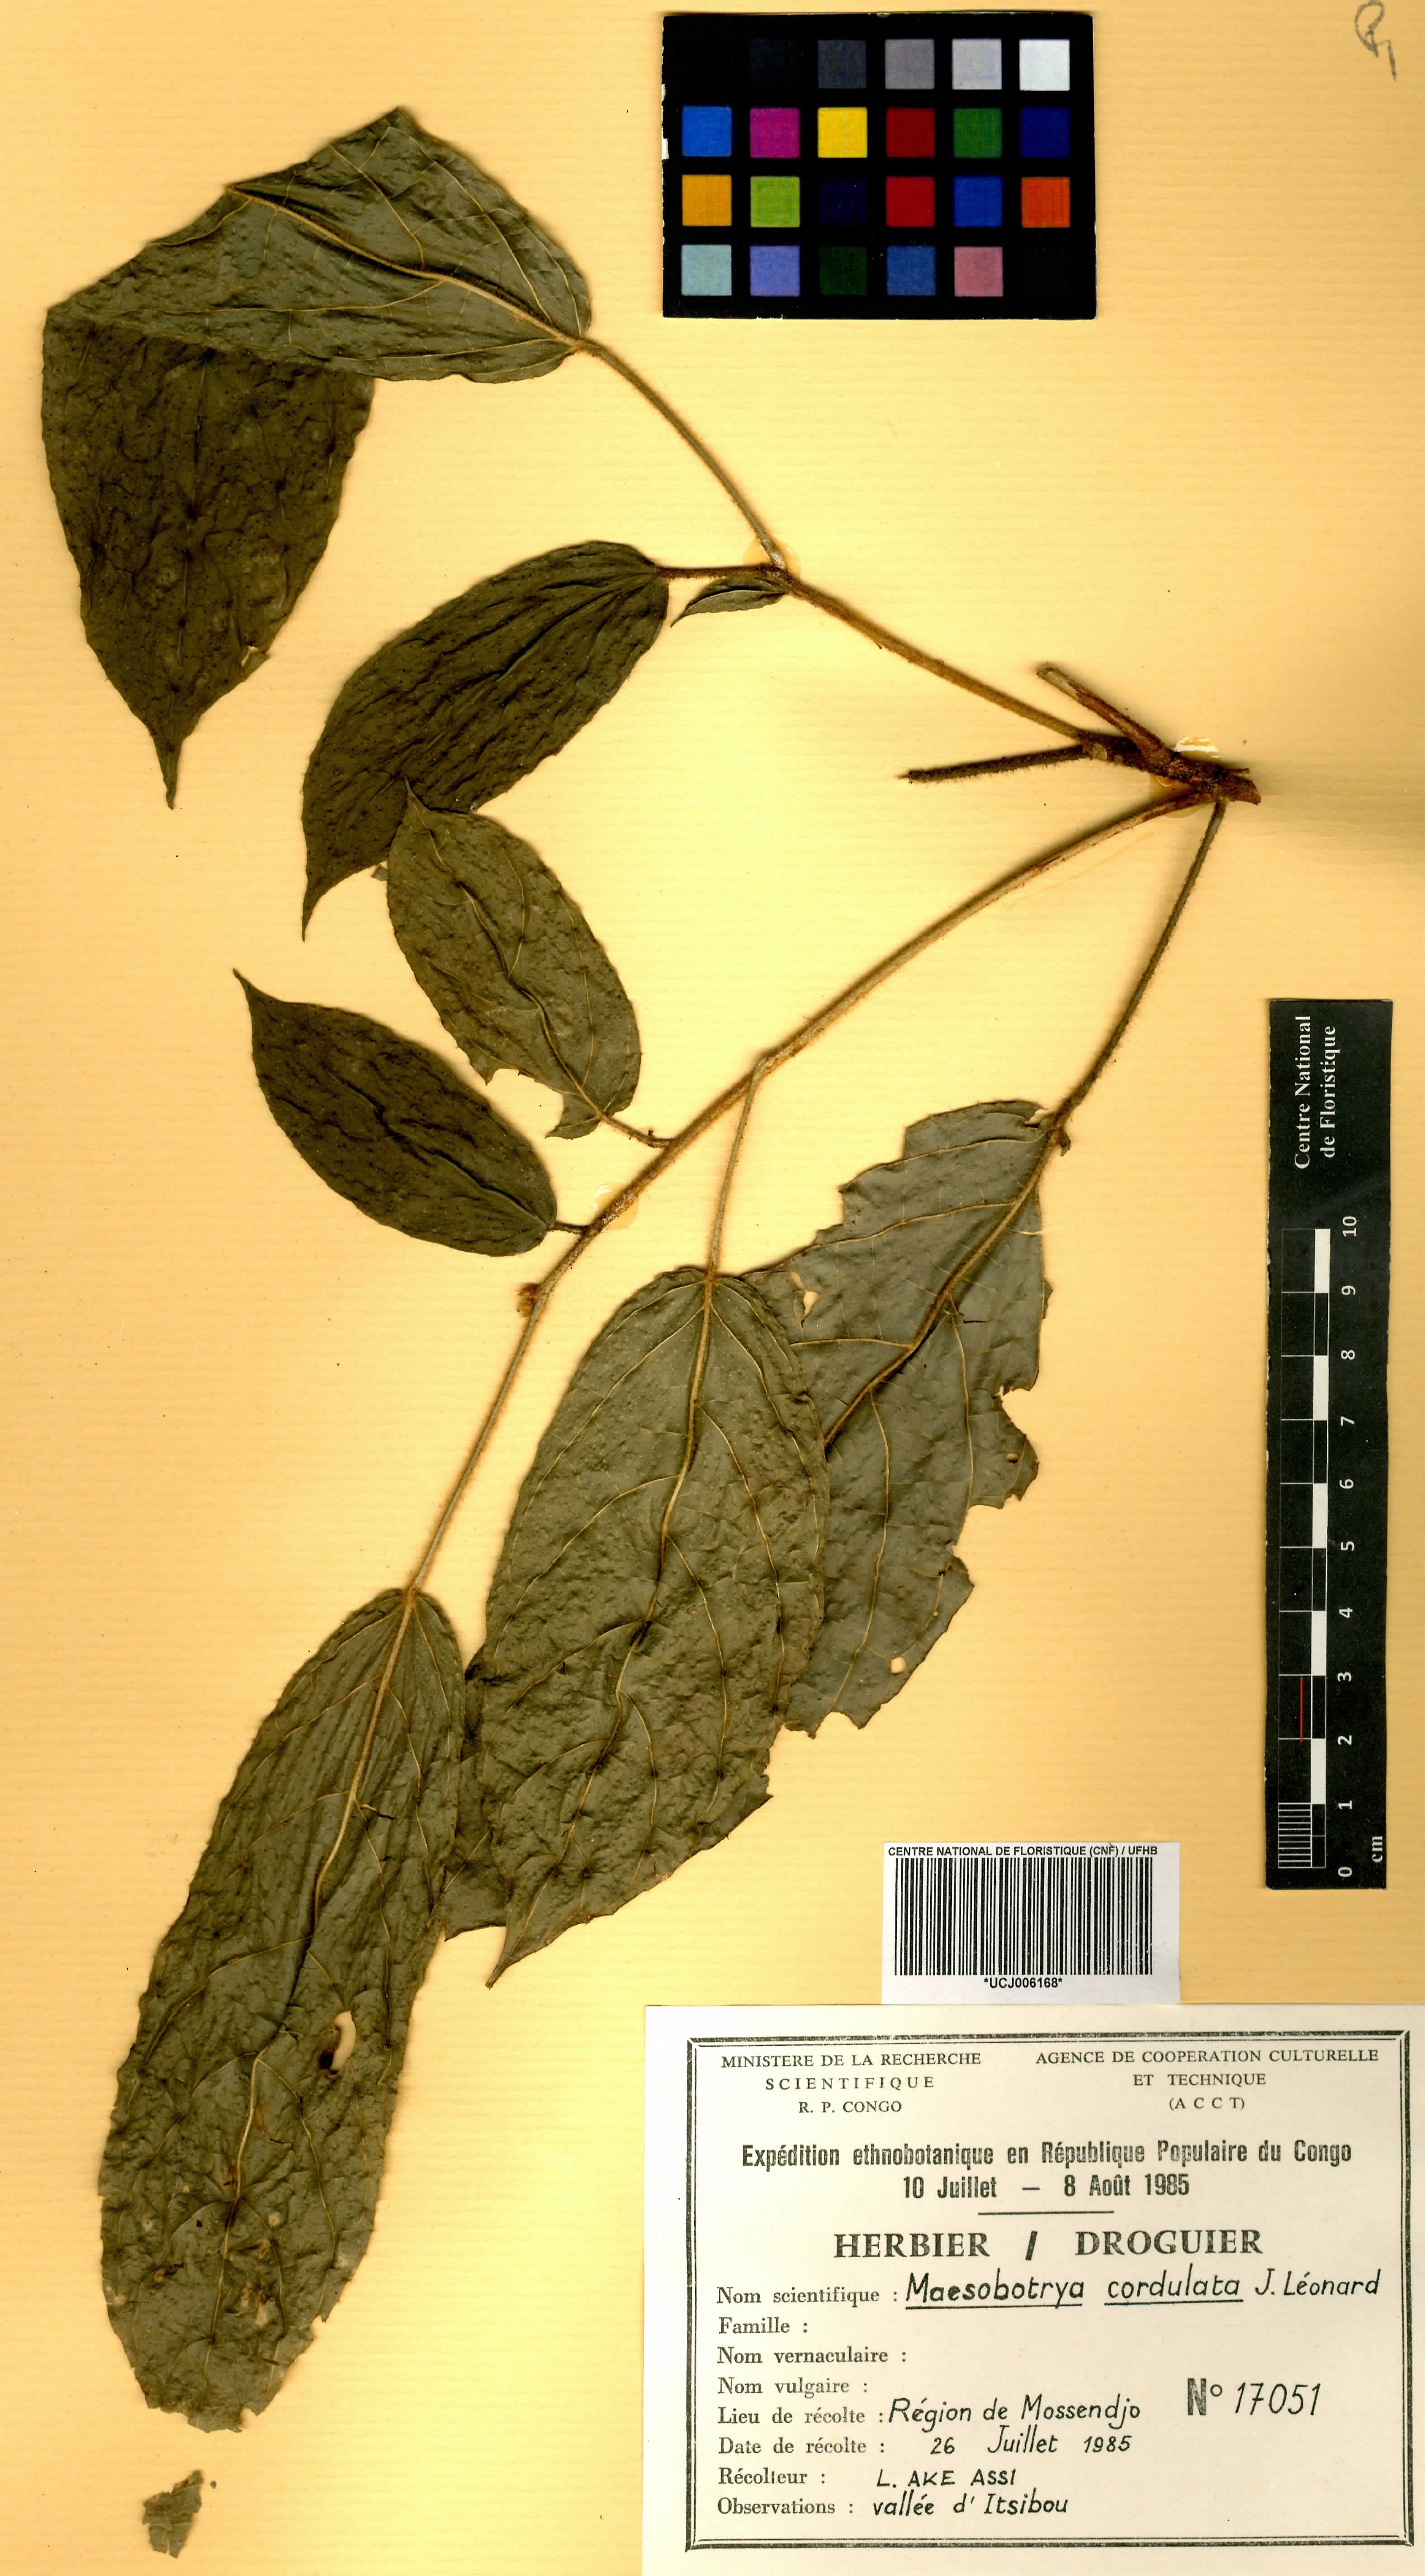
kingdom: Plantae
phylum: Tracheophyta
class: Magnoliopsida
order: Malpighiales
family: Phyllanthaceae
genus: Maesobotrya
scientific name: Maesobotrya cordulata
